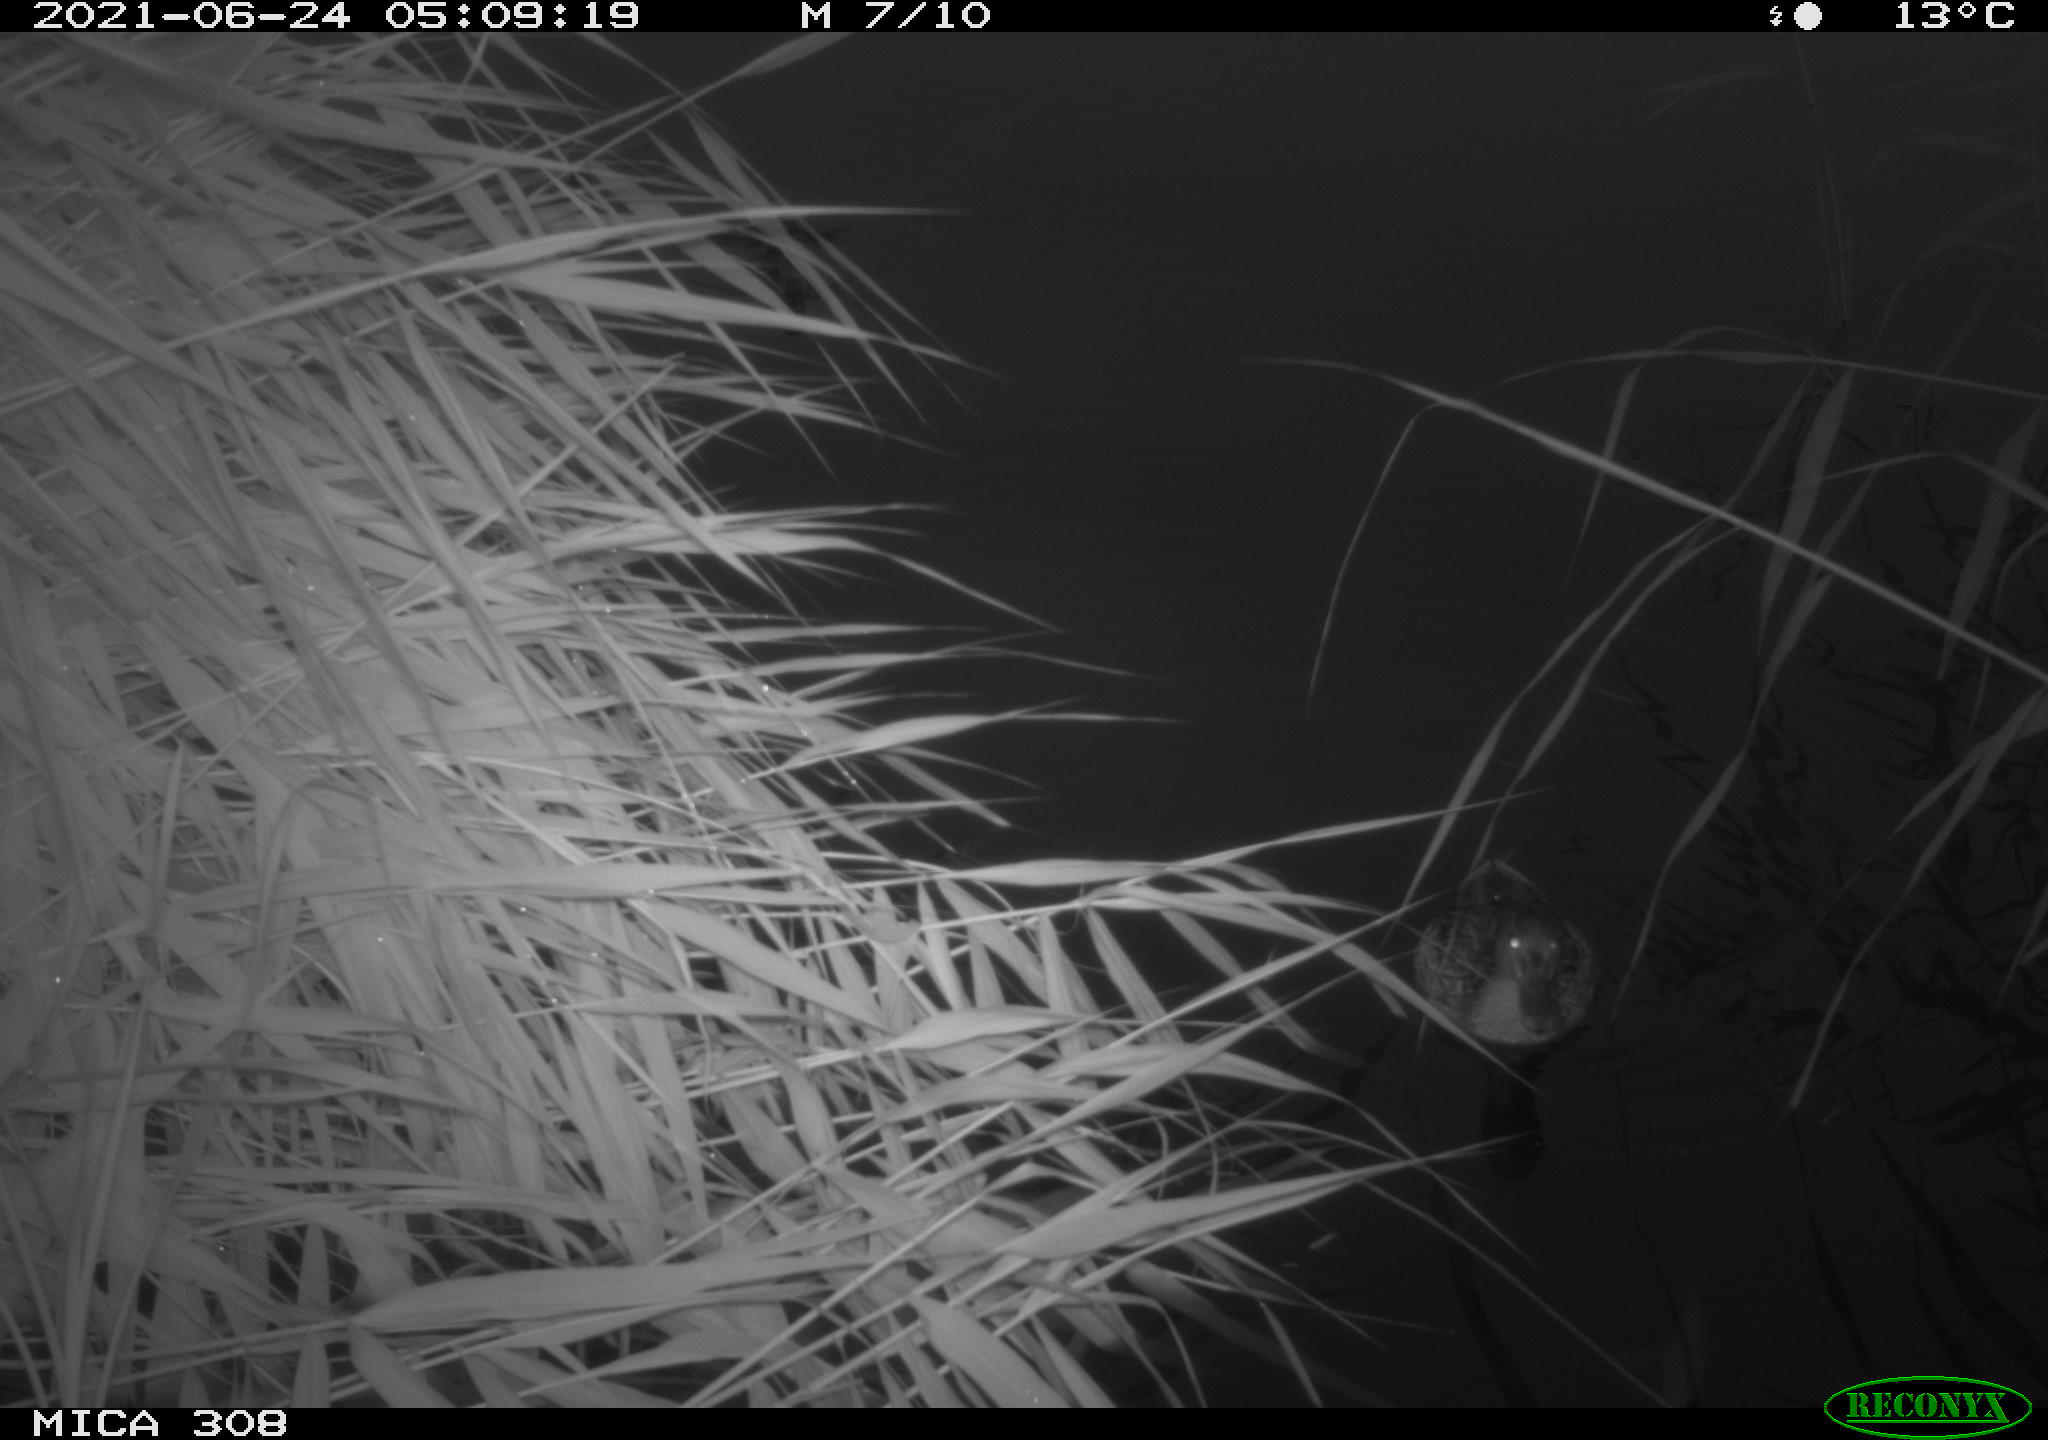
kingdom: Animalia
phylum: Chordata
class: Aves
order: Anseriformes
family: Anatidae
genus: Anas
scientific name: Anas platyrhynchos
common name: Mallard
